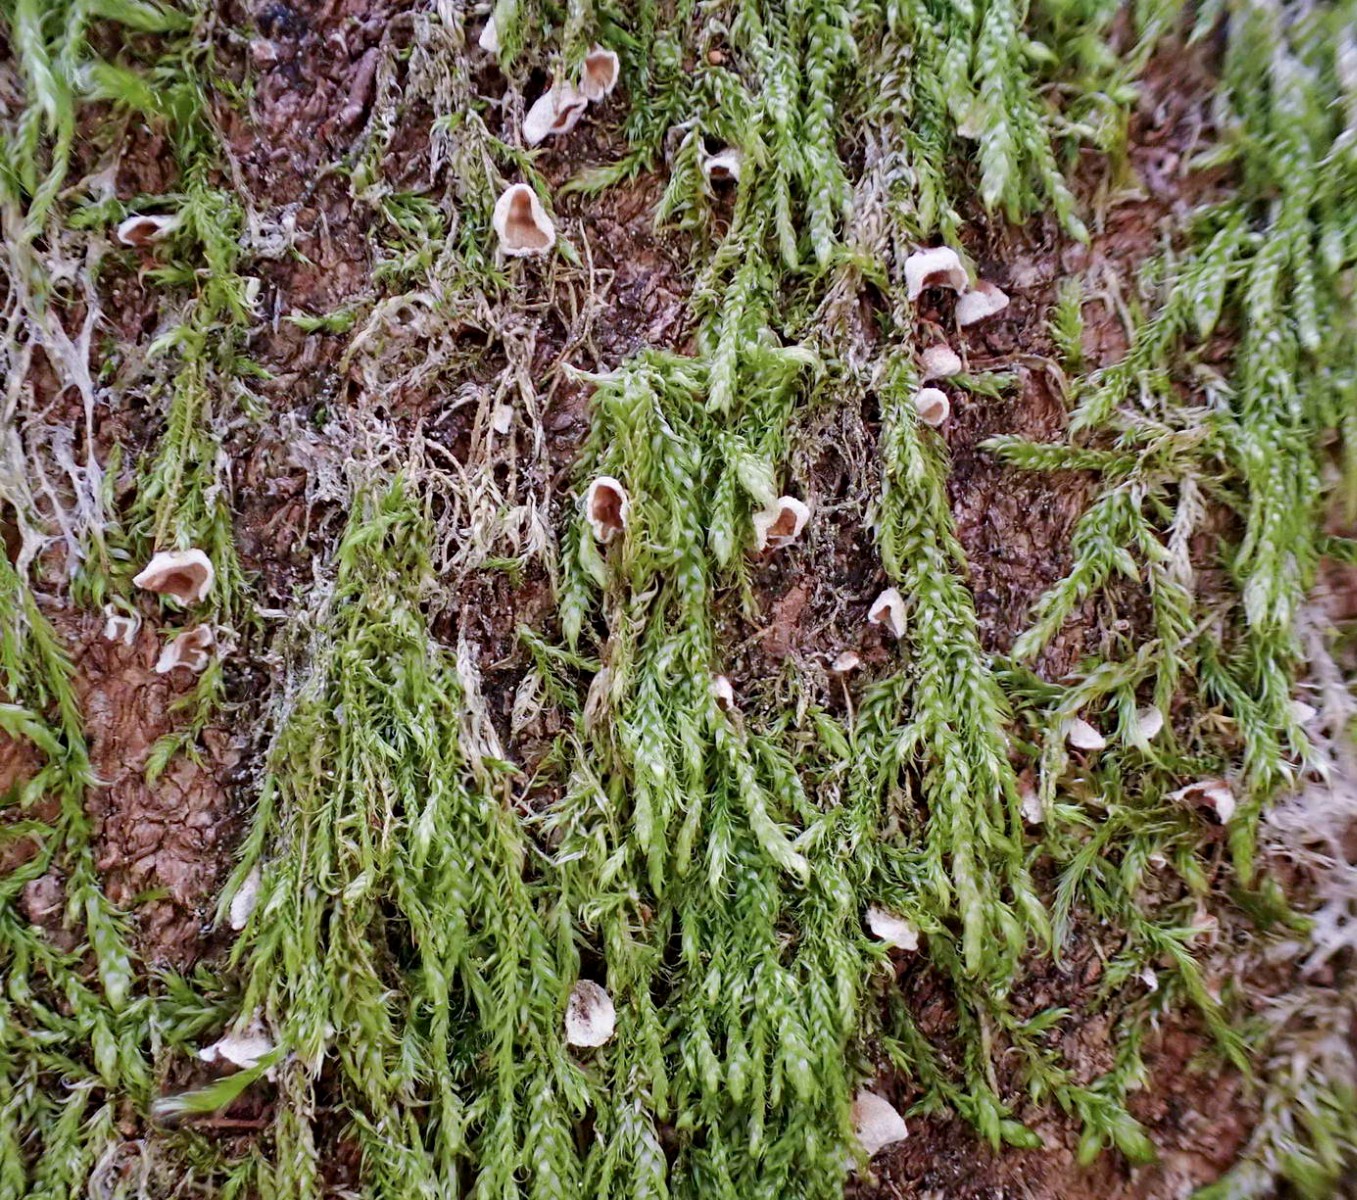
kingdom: Fungi
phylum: Basidiomycota
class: Agaricomycetes
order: Agaricales
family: Chromocyphellaceae
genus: Chromocyphella
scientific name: Chromocyphella muscicola
